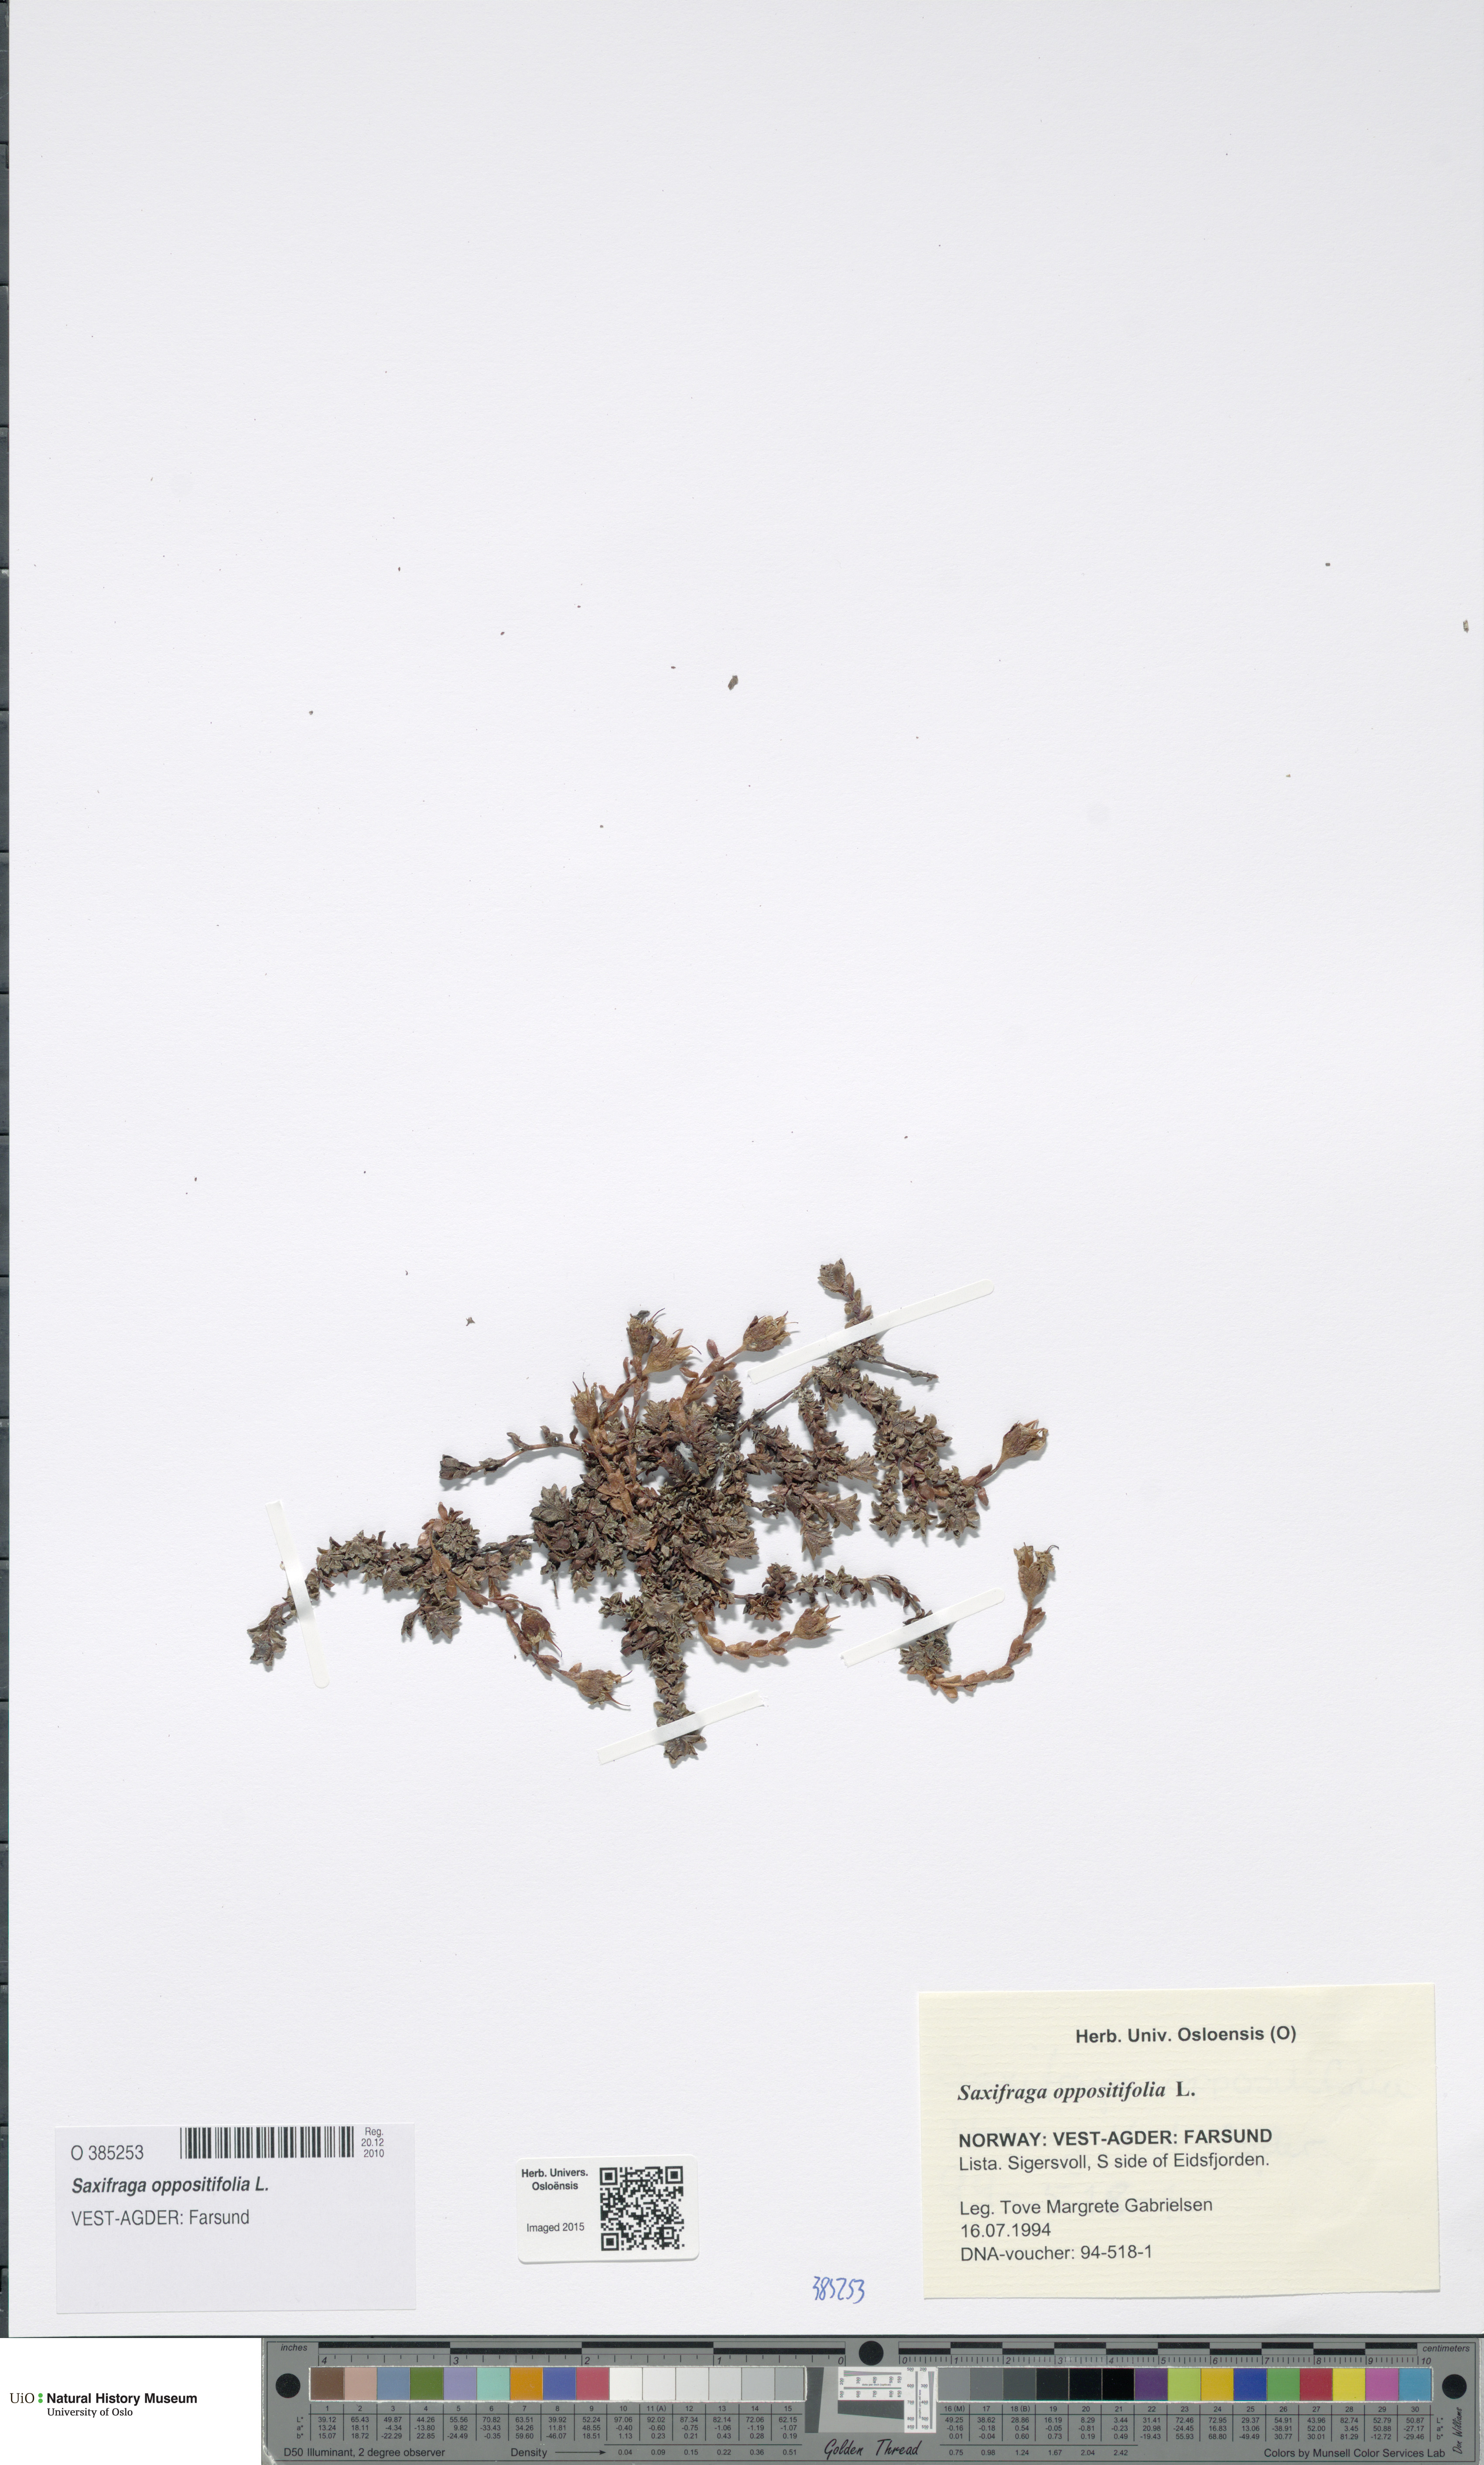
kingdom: Plantae
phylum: Tracheophyta
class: Magnoliopsida
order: Saxifragales
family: Saxifragaceae
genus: Saxifraga
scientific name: Saxifraga oppositifolia
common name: Purple saxifrage
